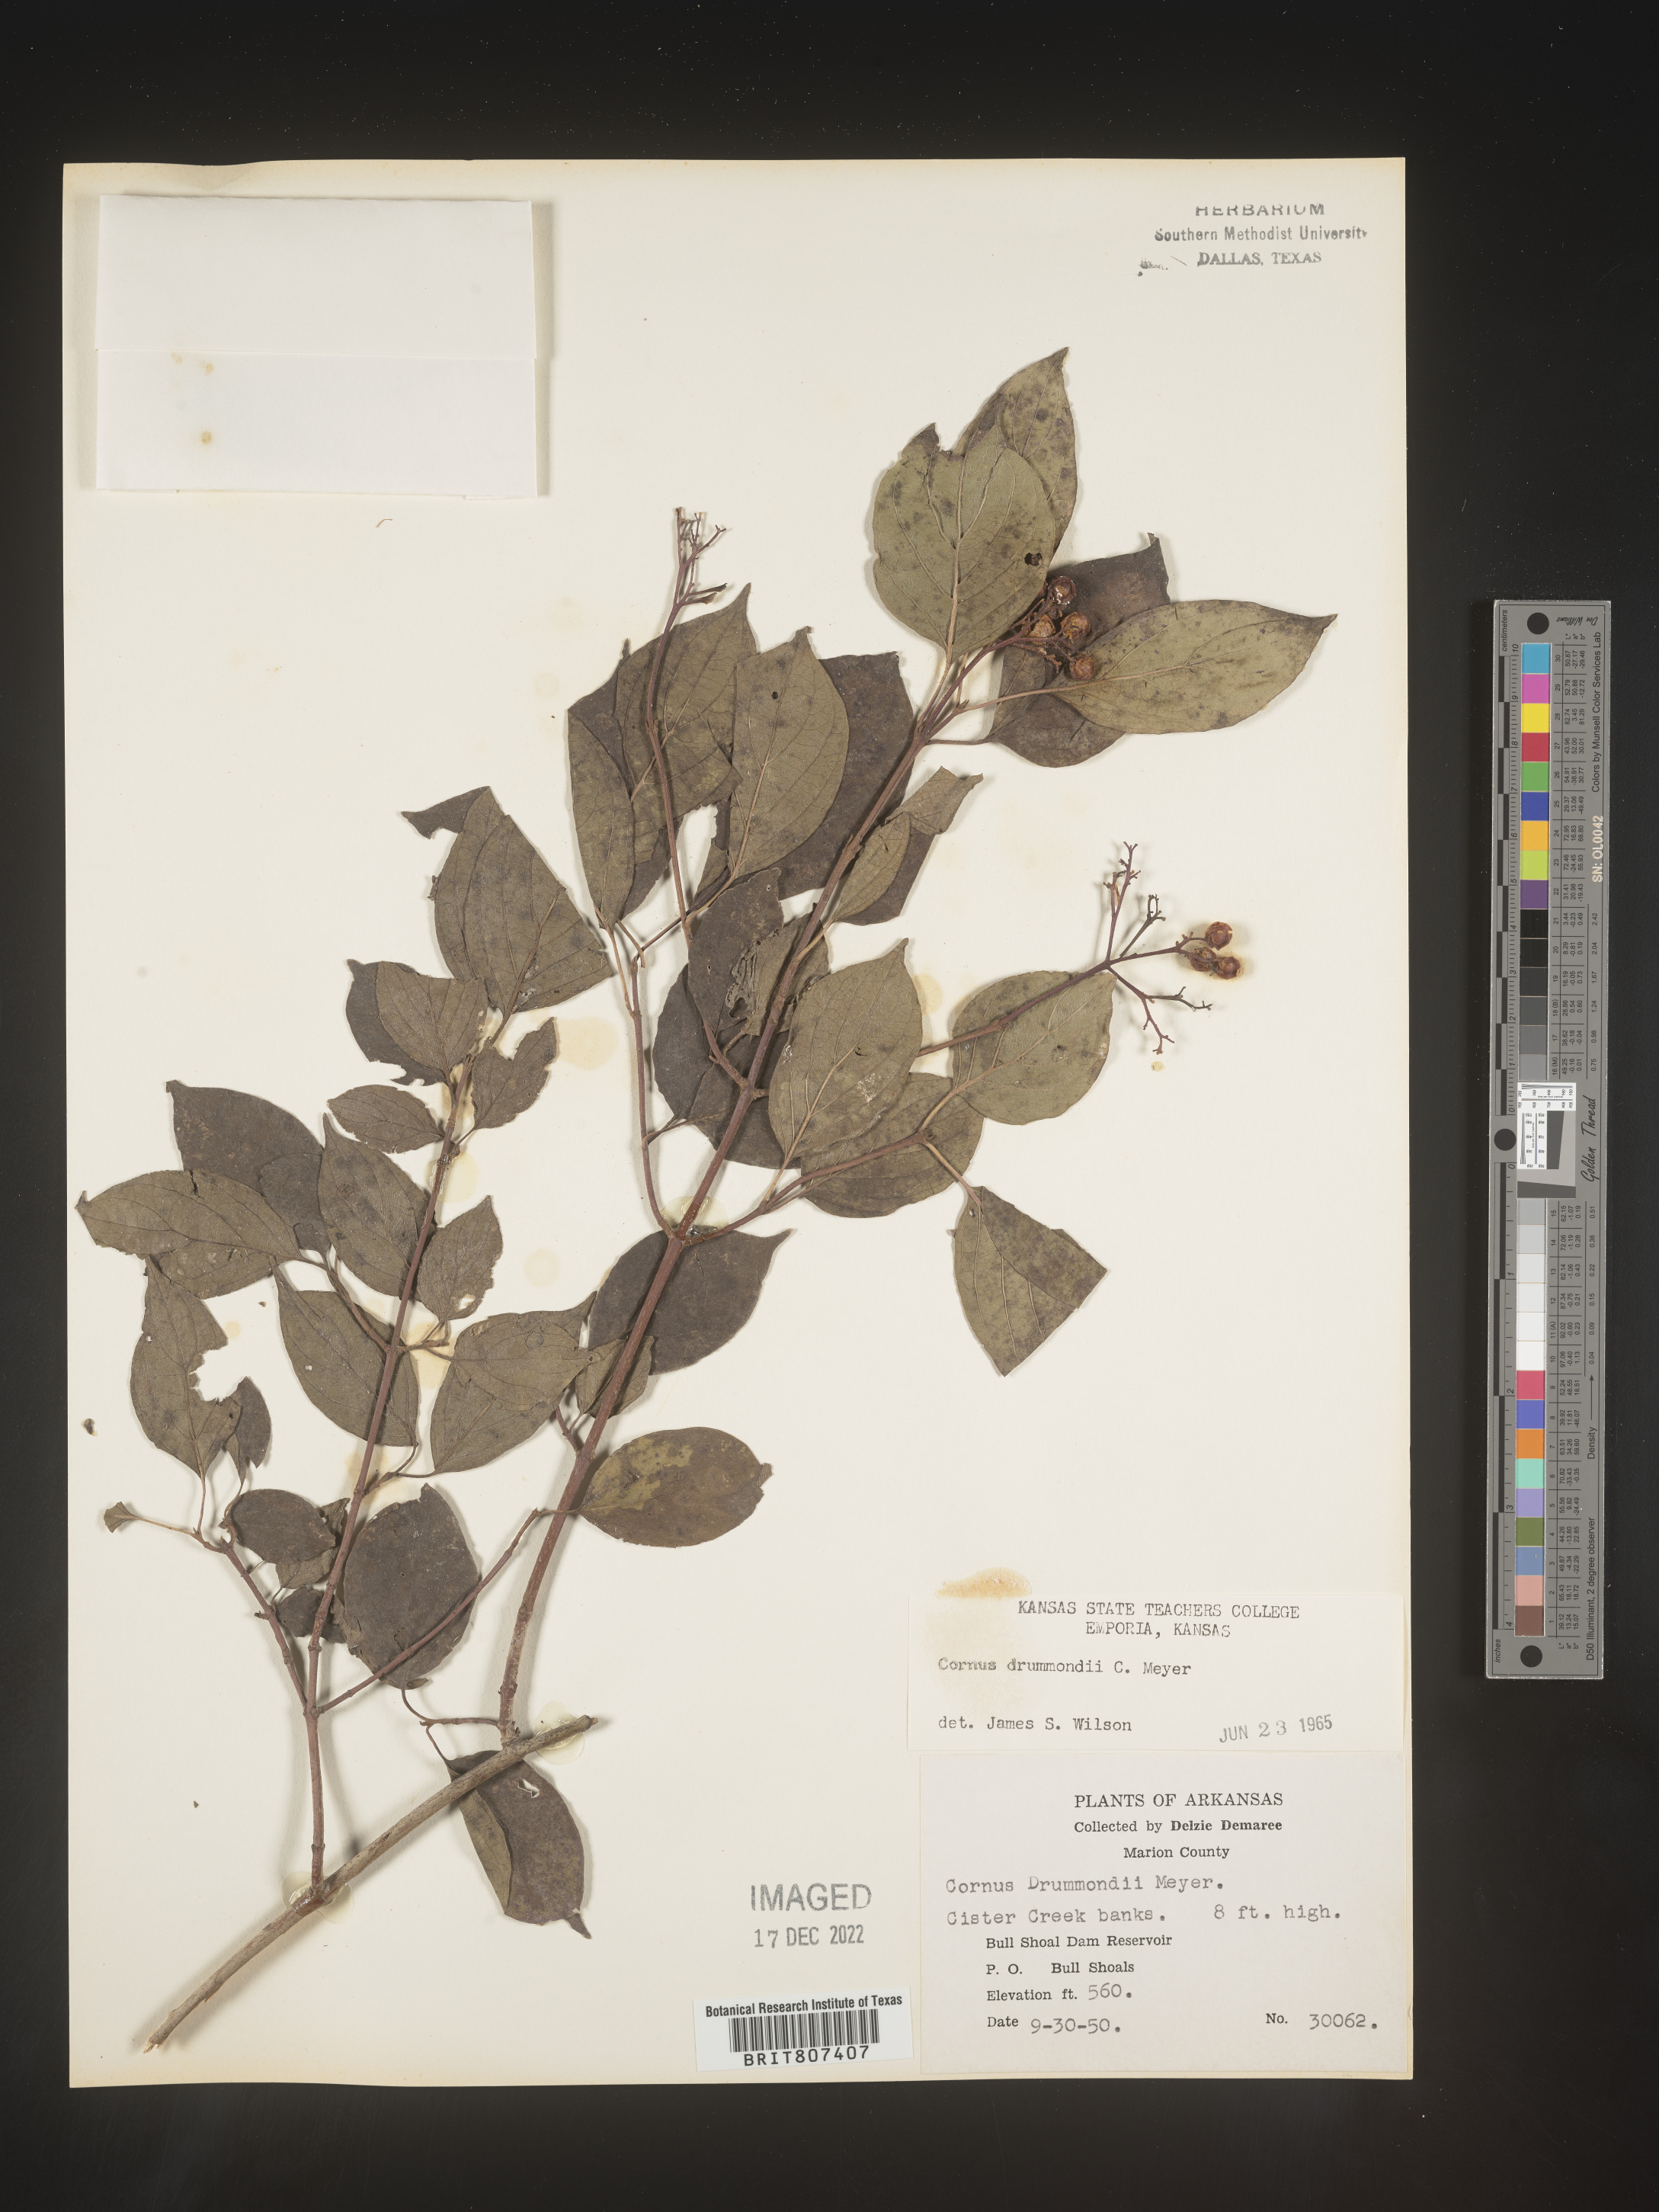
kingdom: Plantae
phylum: Tracheophyta
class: Magnoliopsida
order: Cornales
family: Cornaceae
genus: Cornus
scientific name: Cornus drummondii
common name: Rough-leaf dogwood
